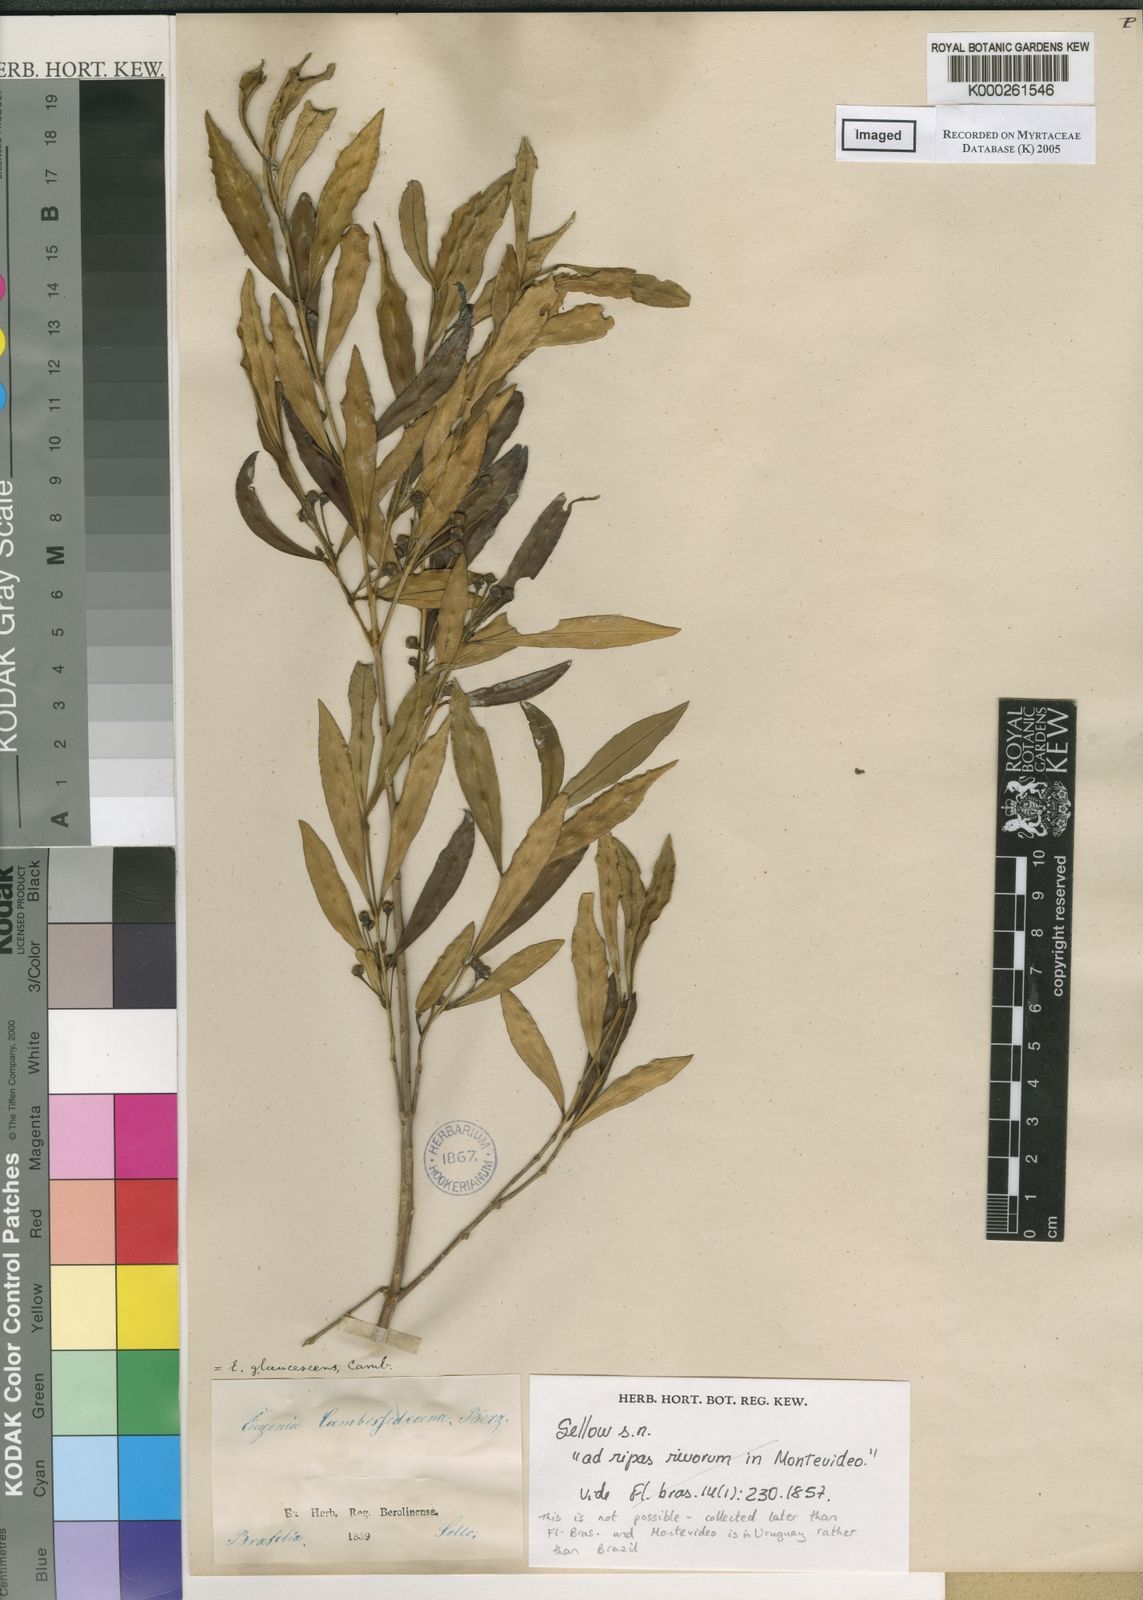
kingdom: Plantae
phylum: Tracheophyta
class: Magnoliopsida
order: Myrtales
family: Myrtaceae
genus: Myrceugenia
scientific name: Myrceugenia glaucescens
